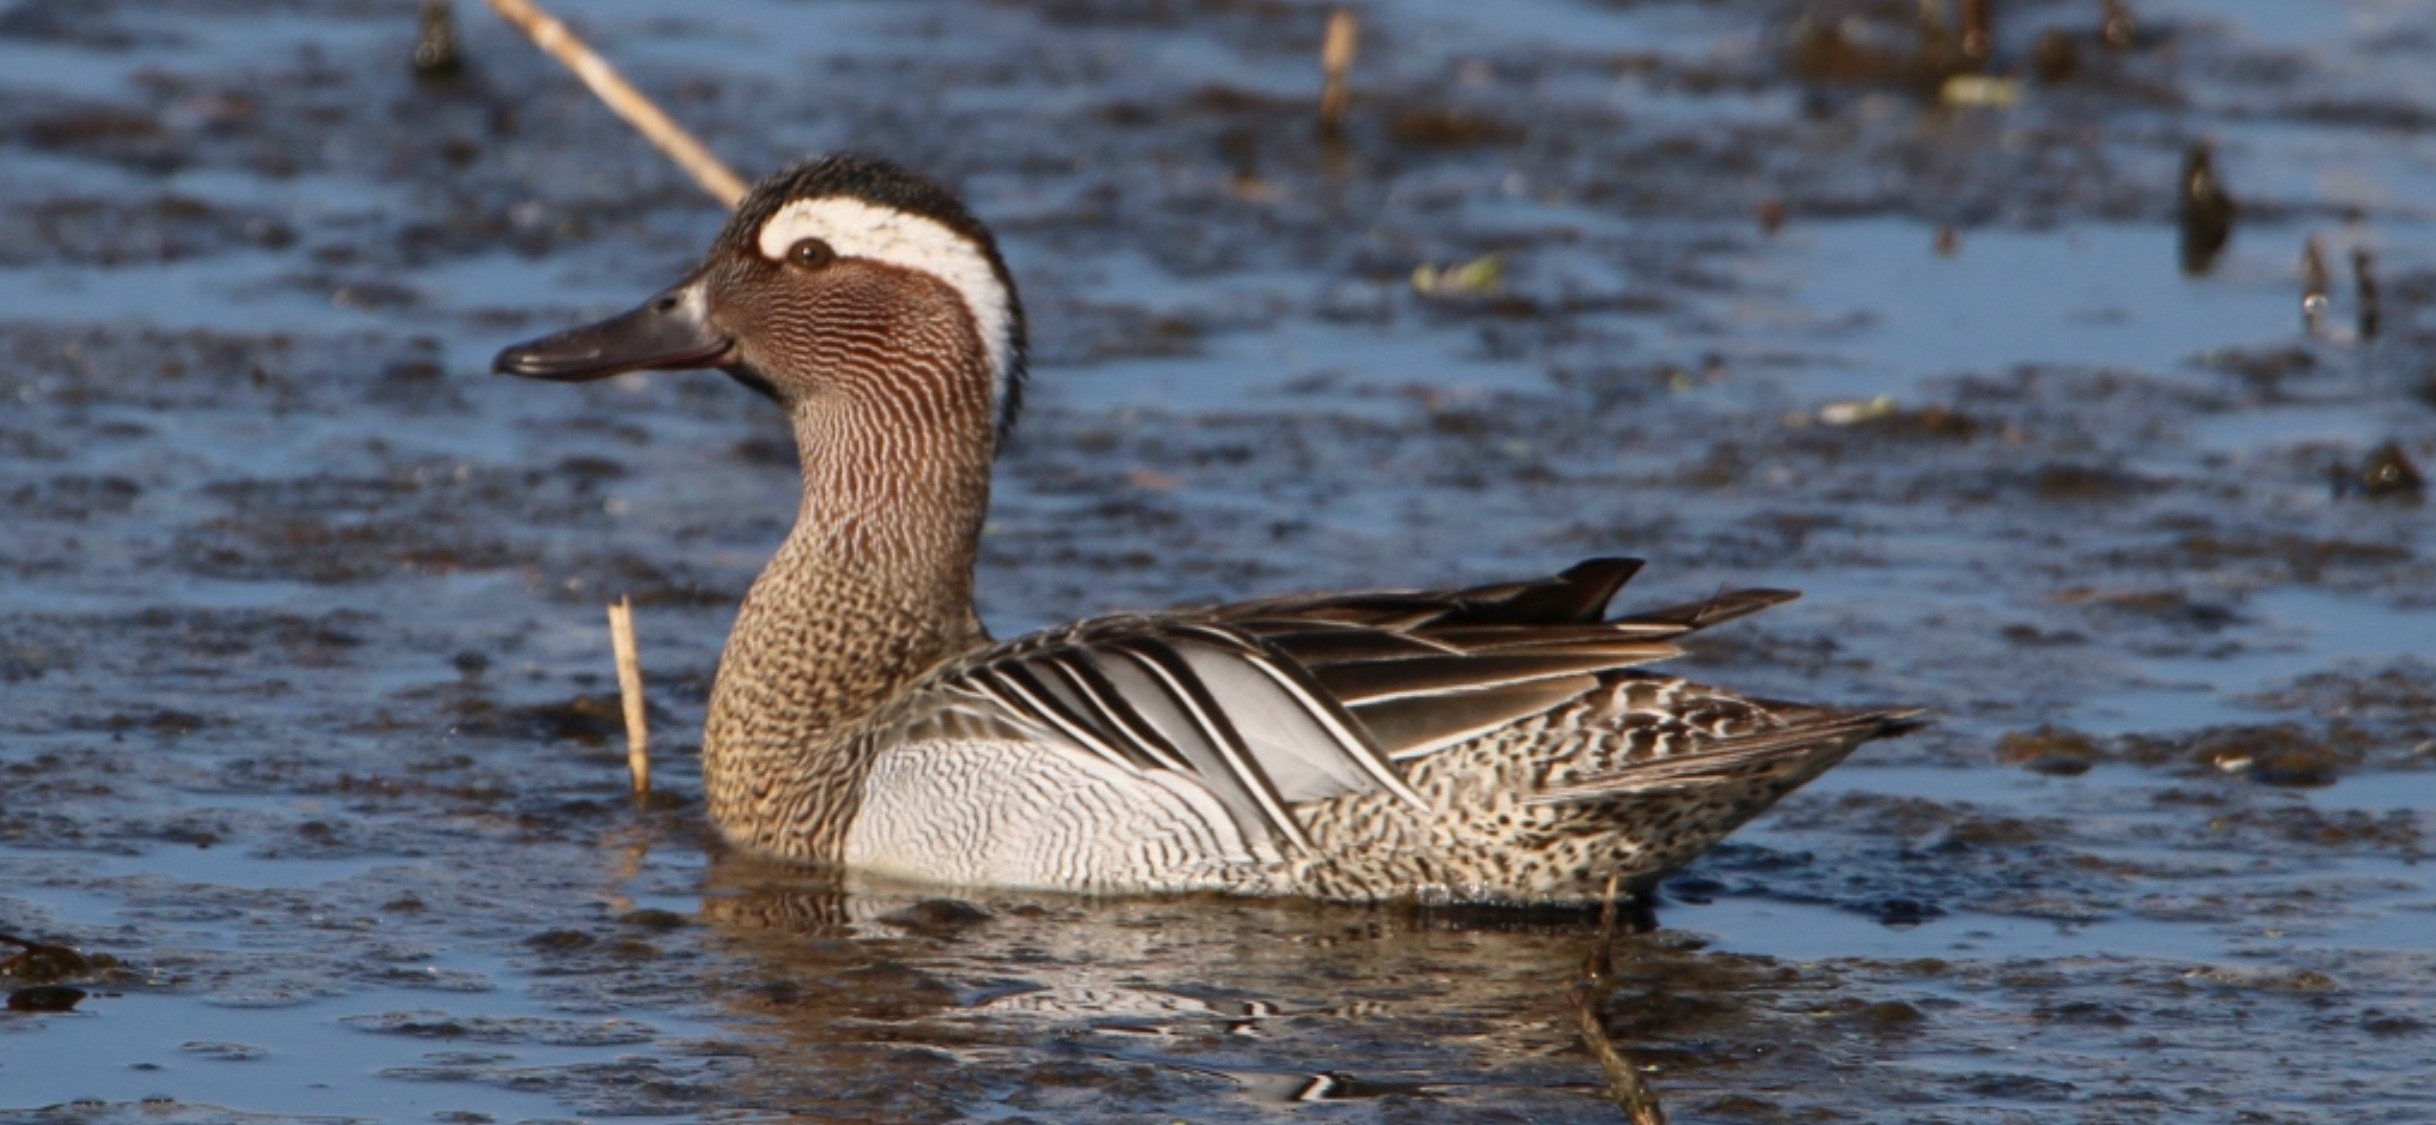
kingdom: Animalia
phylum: Chordata
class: Aves
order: Anseriformes
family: Anatidae
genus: Spatula
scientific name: Spatula querquedula
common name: Atlingand
